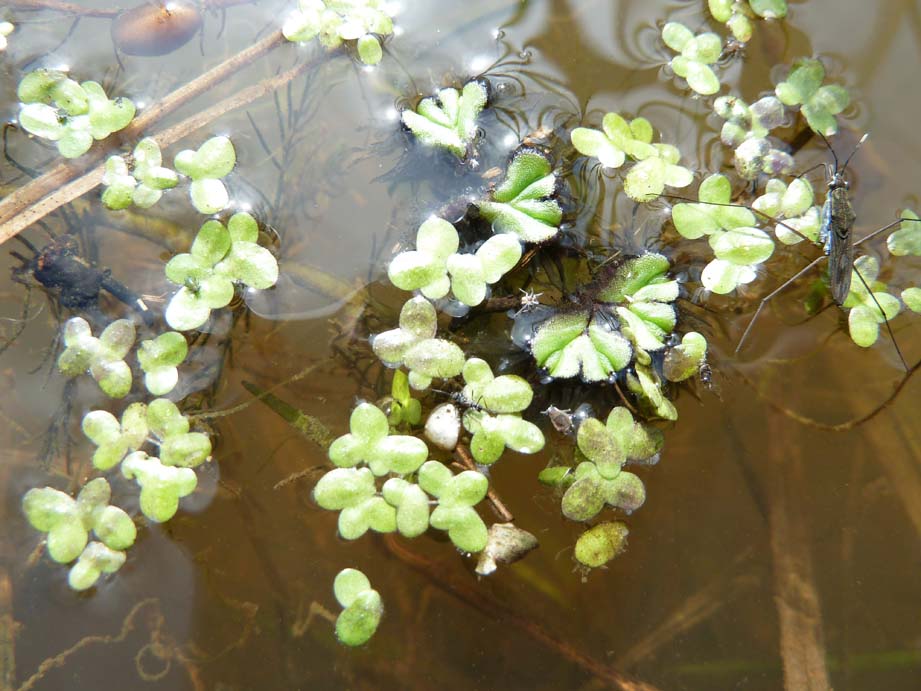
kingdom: Plantae
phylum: Tracheophyta
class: Liliopsida
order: Alismatales
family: Araceae
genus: Lemna
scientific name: Lemna minor
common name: Common duckweed
